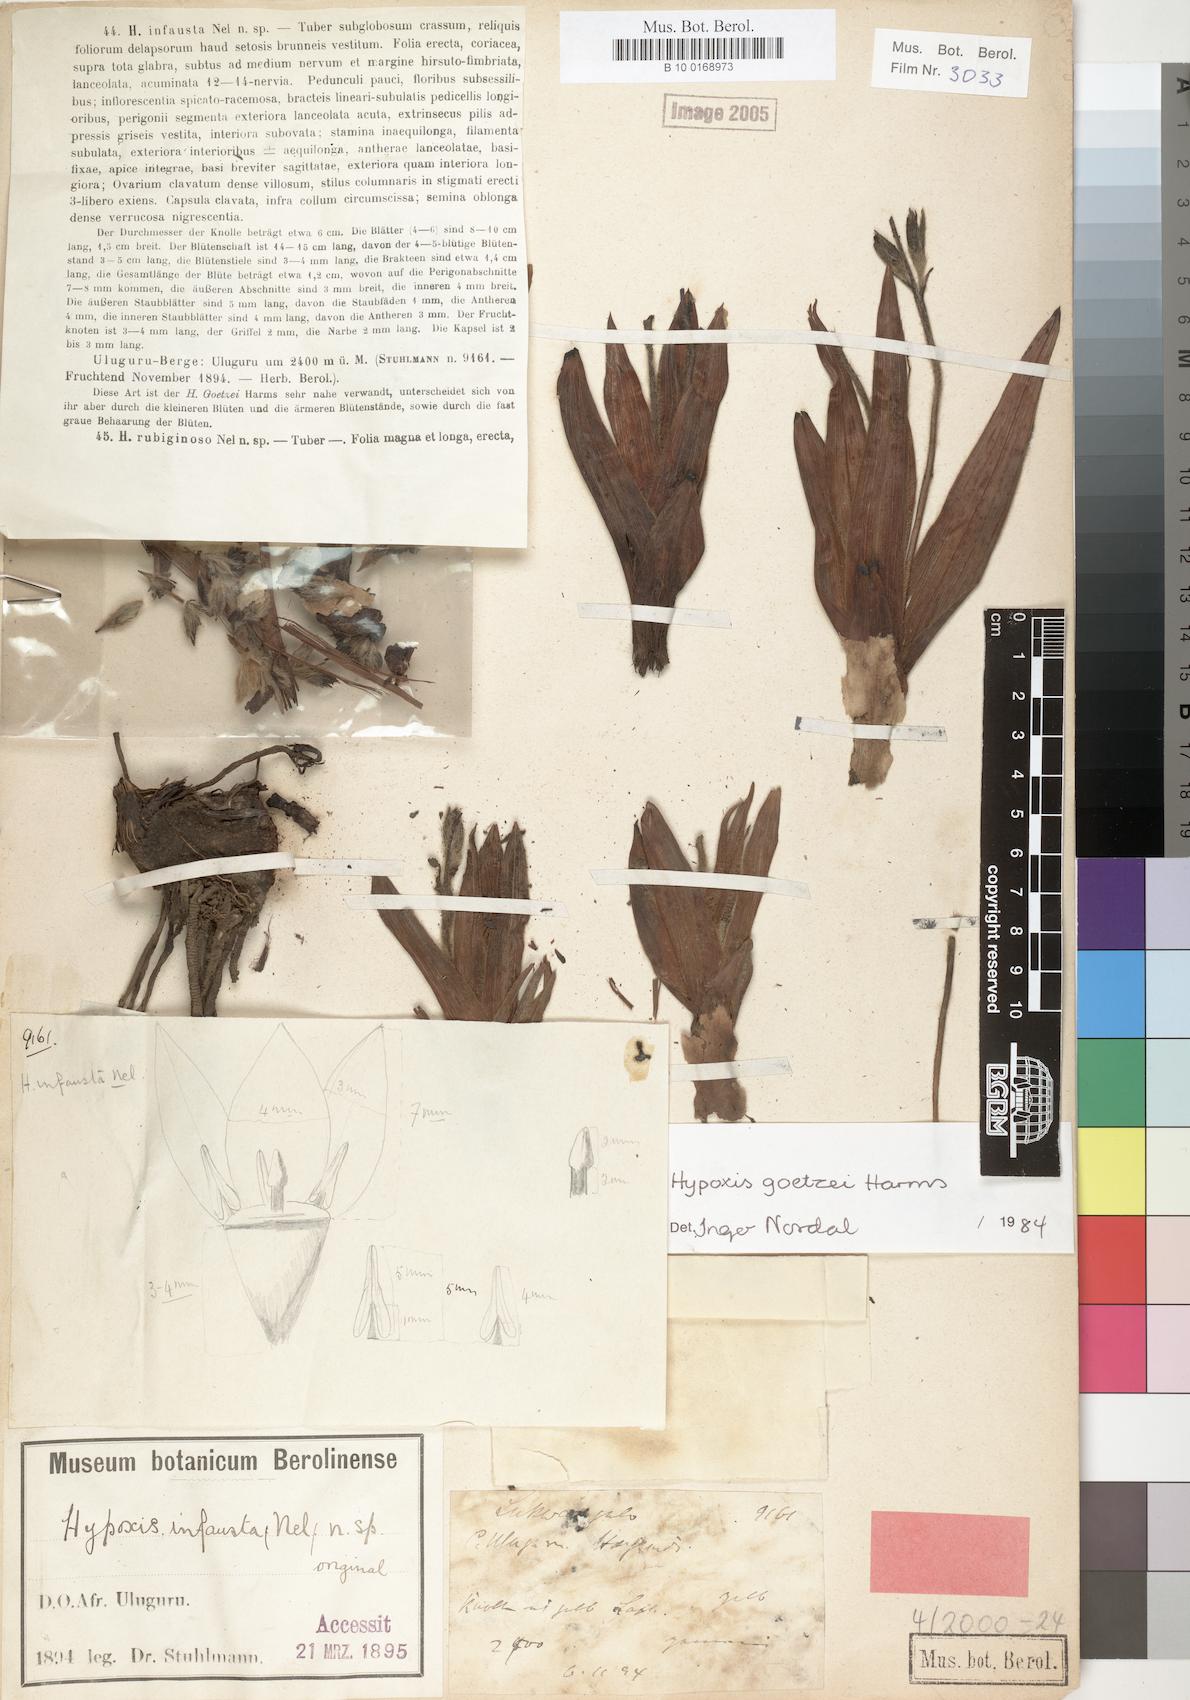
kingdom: Plantae
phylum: Tracheophyta
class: Liliopsida
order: Asparagales
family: Hypoxidaceae
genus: Hypoxis
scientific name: Hypoxis goetzei
